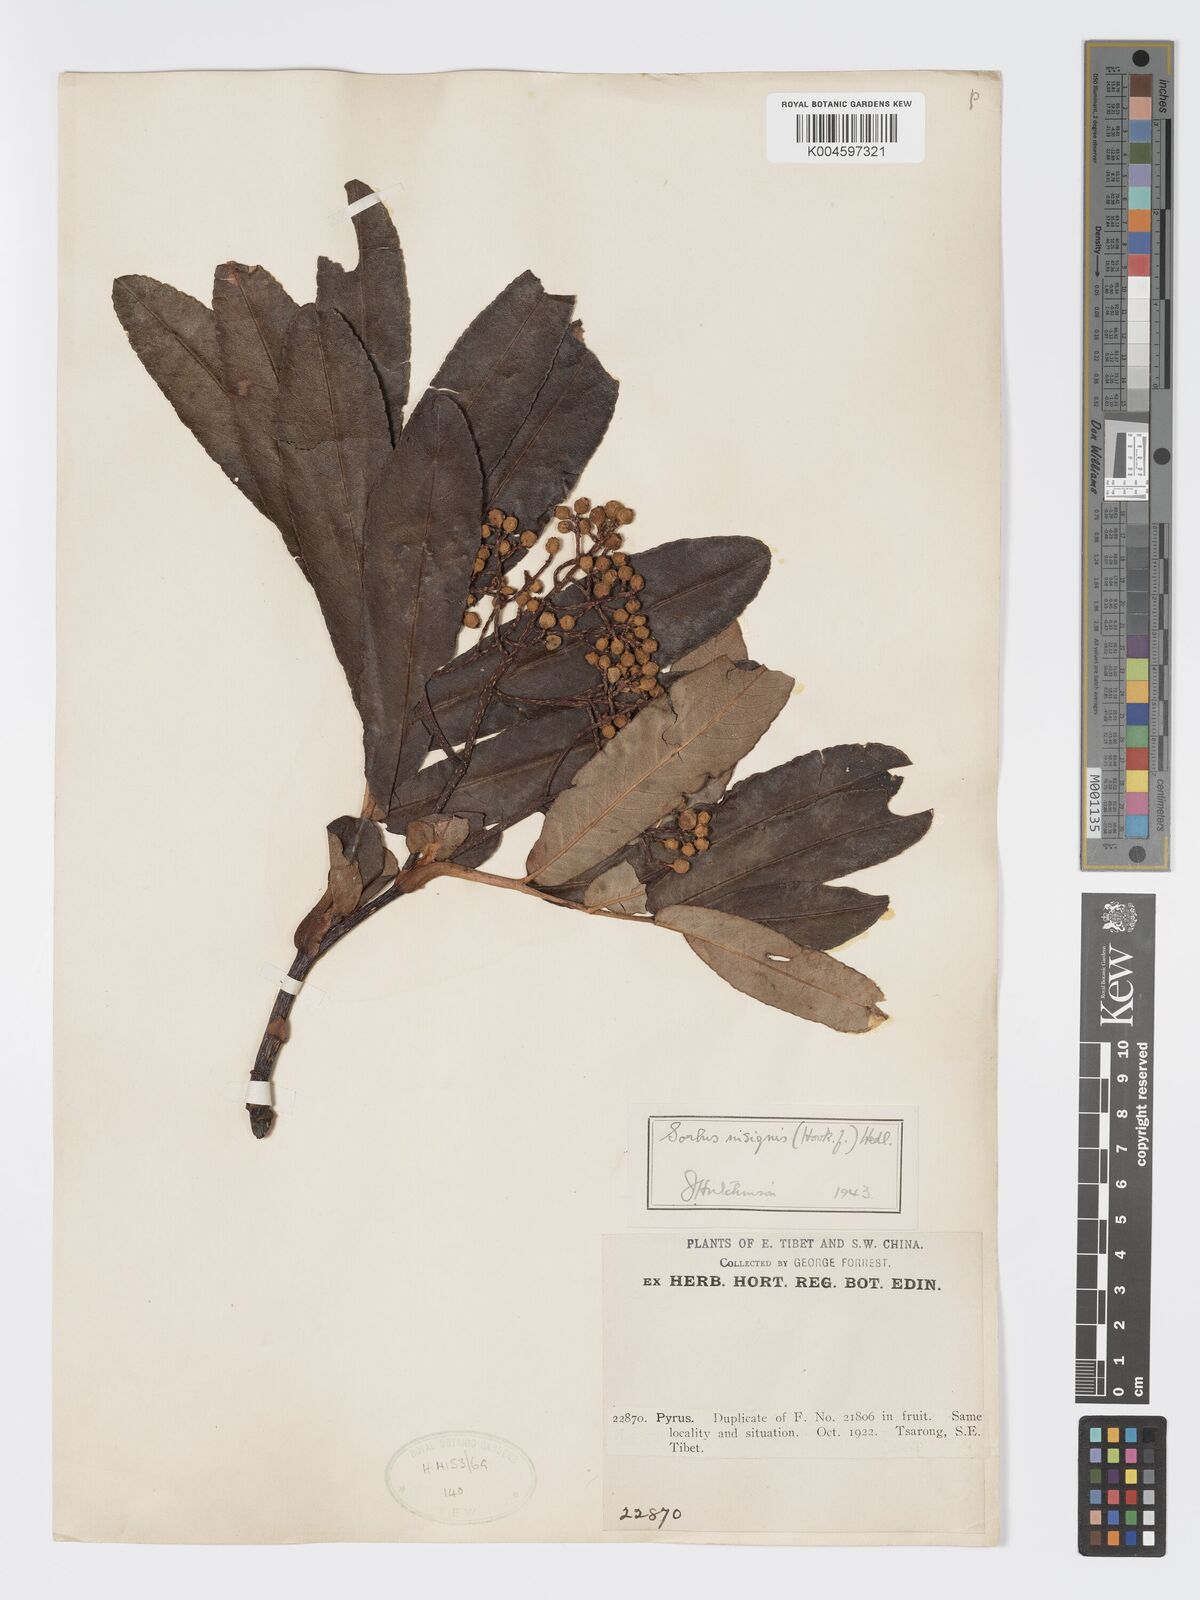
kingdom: Plantae
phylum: Tracheophyta
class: Magnoliopsida
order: Rosales
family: Rosaceae
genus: Sorbus
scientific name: Sorbus
